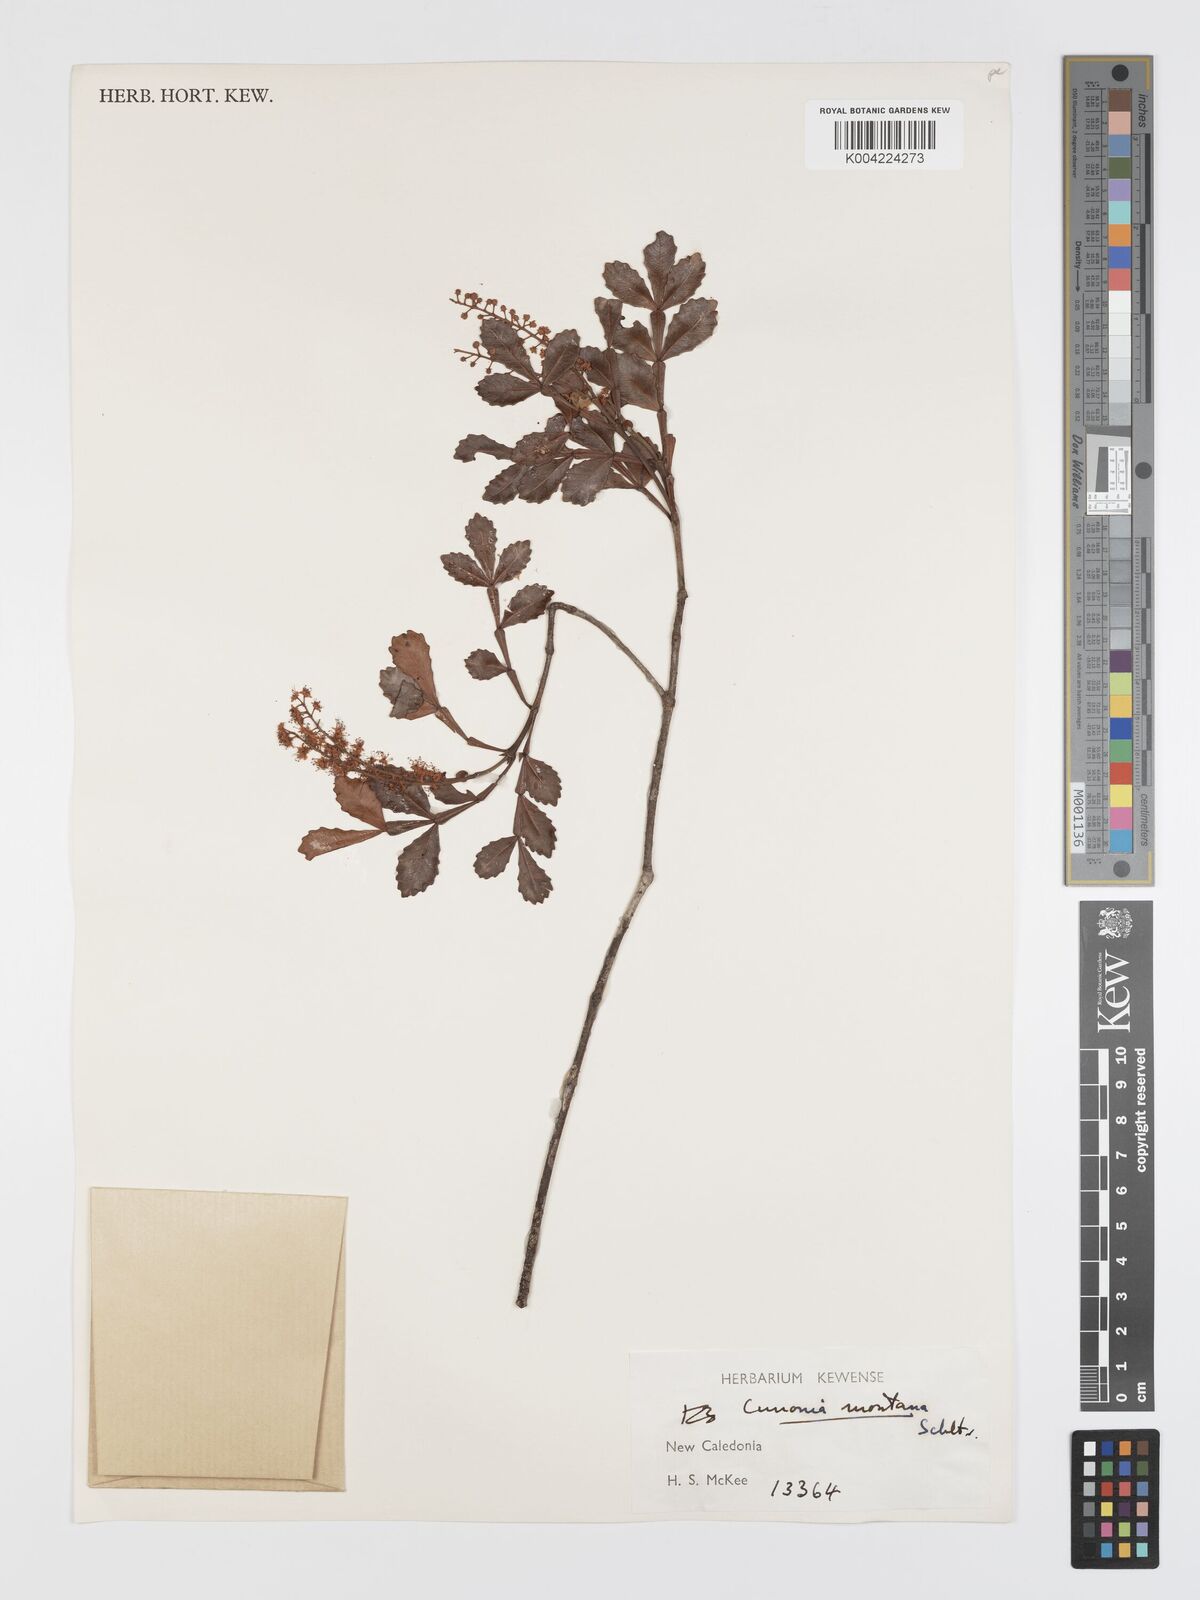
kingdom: Plantae
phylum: Tracheophyta
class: Magnoliopsida
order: Oxalidales
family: Cunoniaceae
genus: Cunonia
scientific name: Cunonia montana
